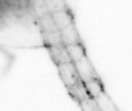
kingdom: Animalia
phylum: Arthropoda
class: Copepoda
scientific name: Copepoda
